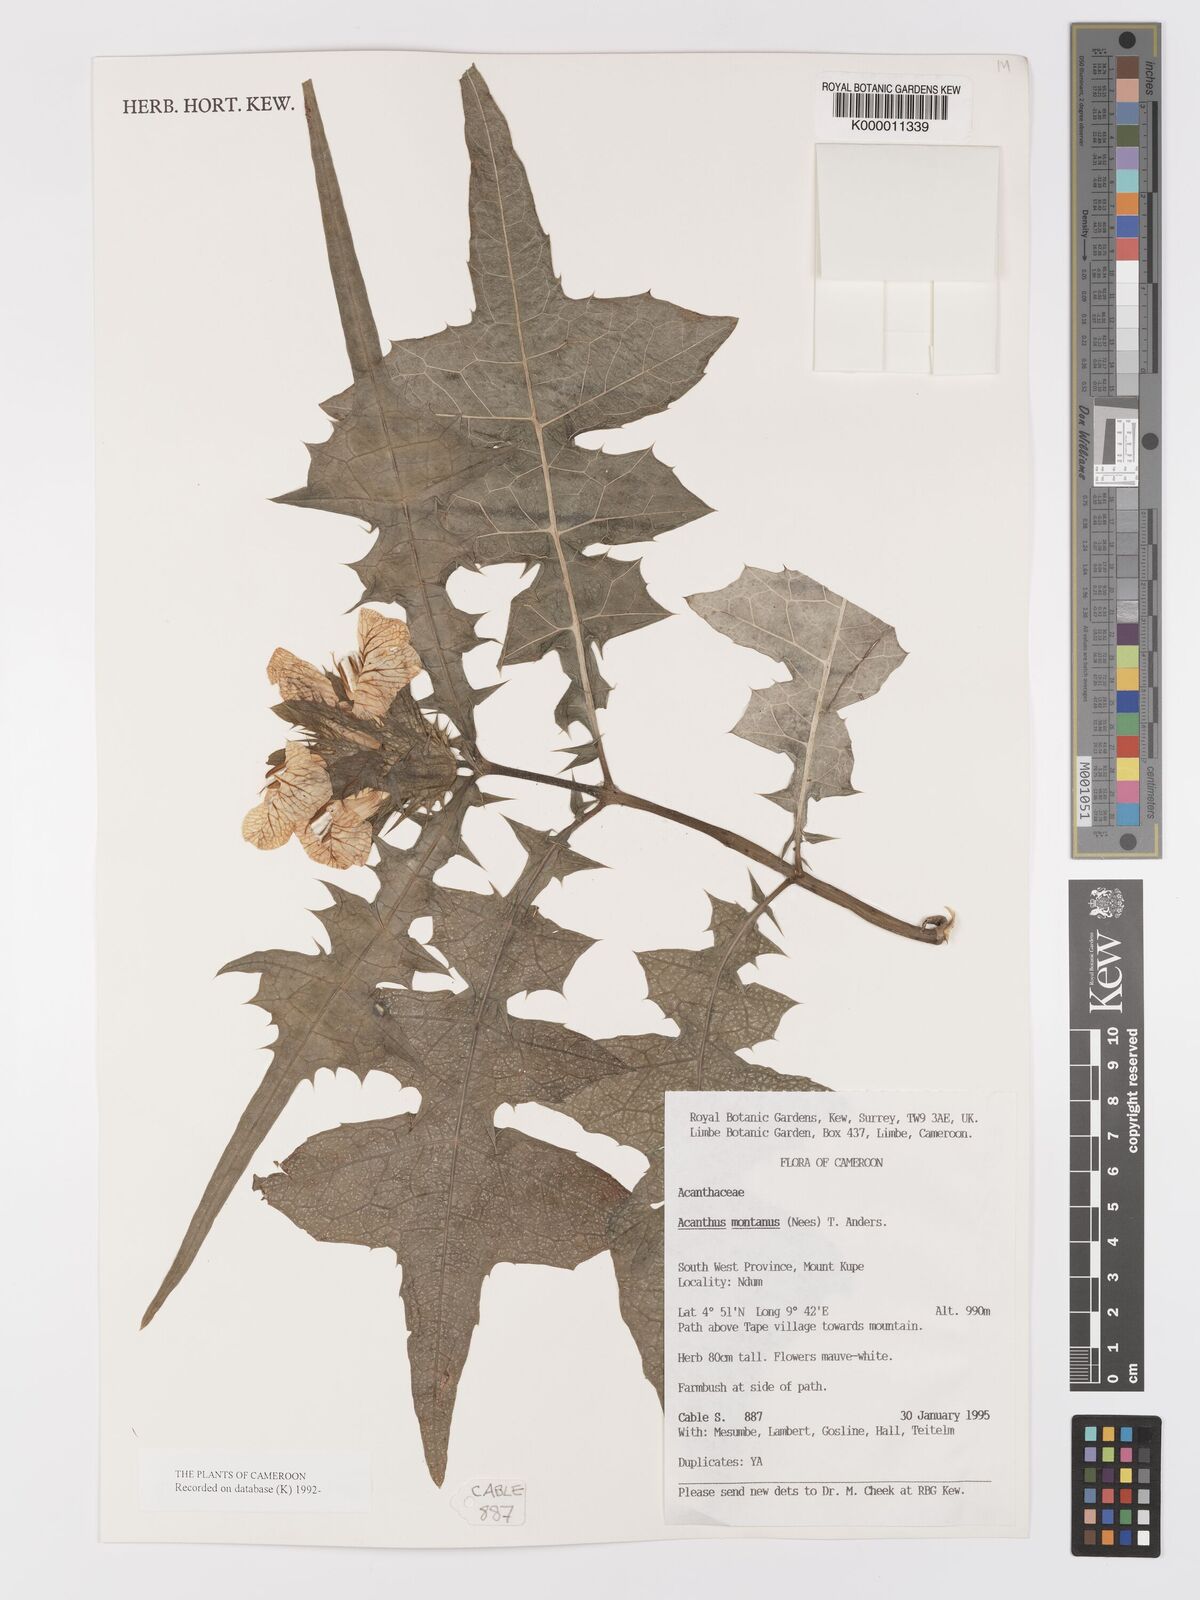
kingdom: Plantae
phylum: Tracheophyta
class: Magnoliopsida
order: Lamiales
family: Acanthaceae
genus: Acanthus
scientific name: Acanthus montanus
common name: Mountain thistle
